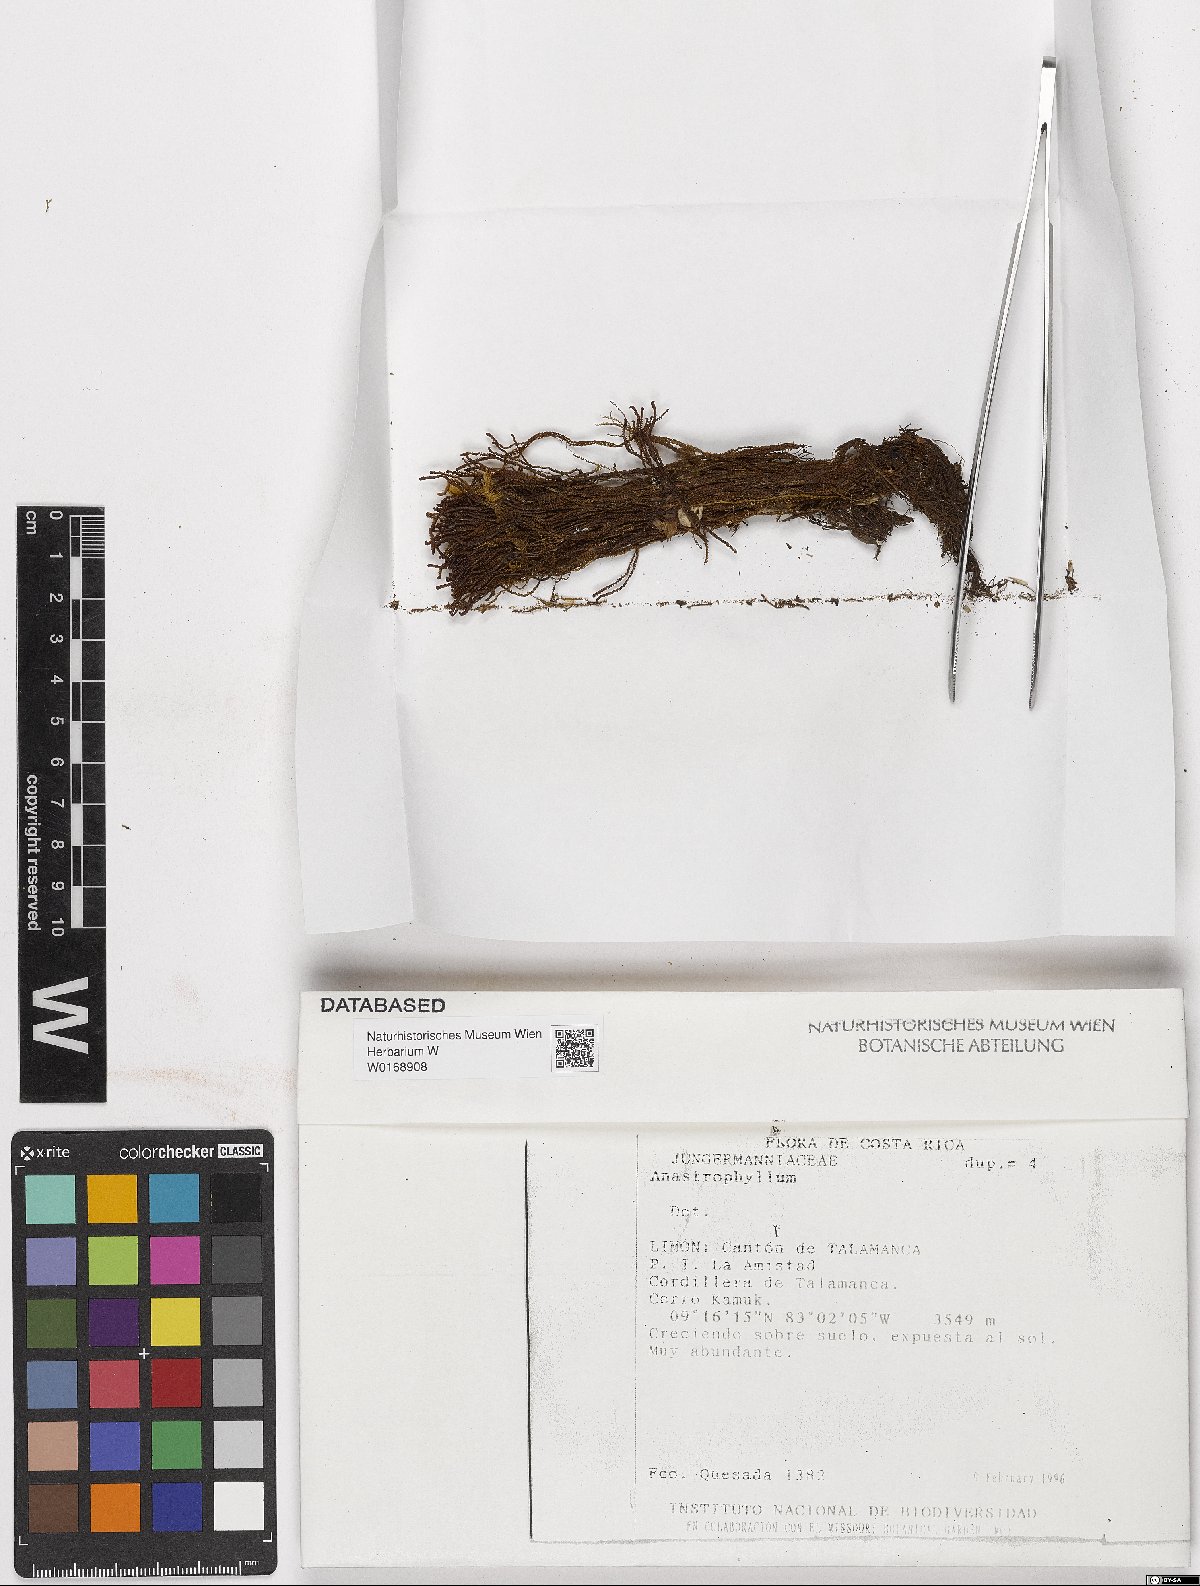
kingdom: Plantae
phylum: Marchantiophyta
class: Jungermanniopsida
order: Jungermanniales
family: Anastrophyllaceae
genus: Anastrophyllum
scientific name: Anastrophyllum
